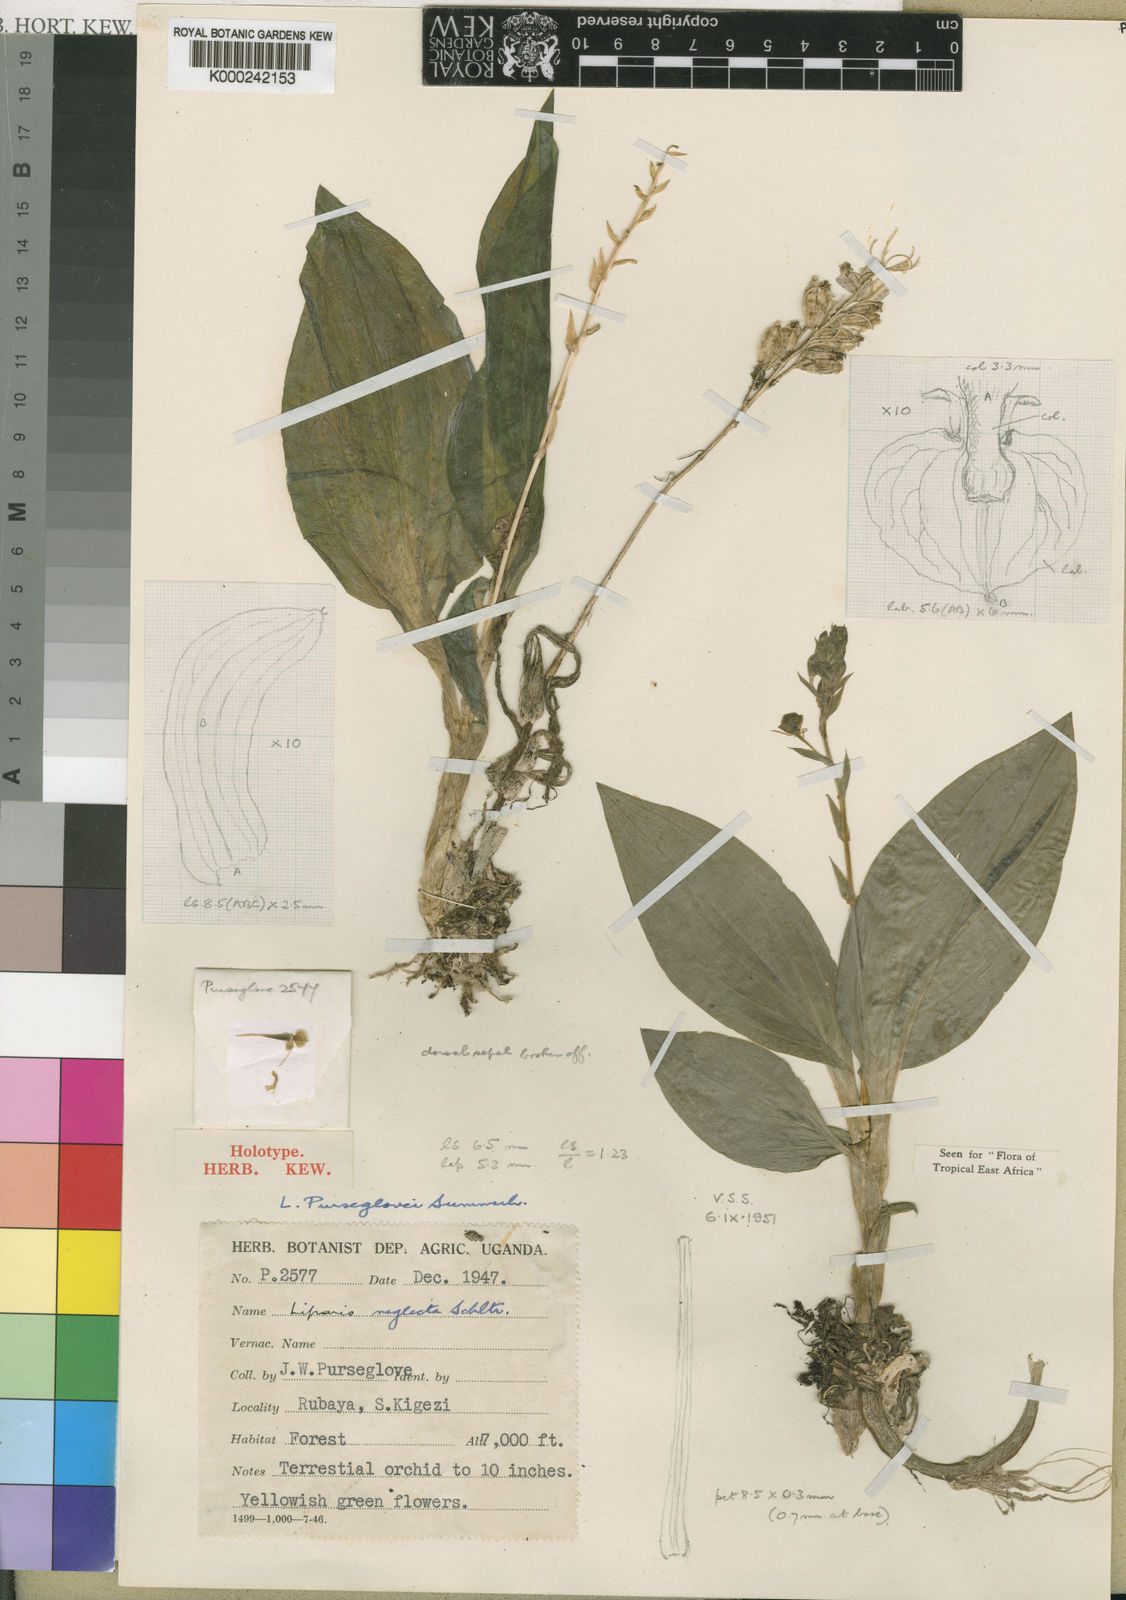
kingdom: Plantae
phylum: Tracheophyta
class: Liliopsida
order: Asparagales
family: Orchidaceae
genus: Liparis
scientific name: Liparis bowkeri
